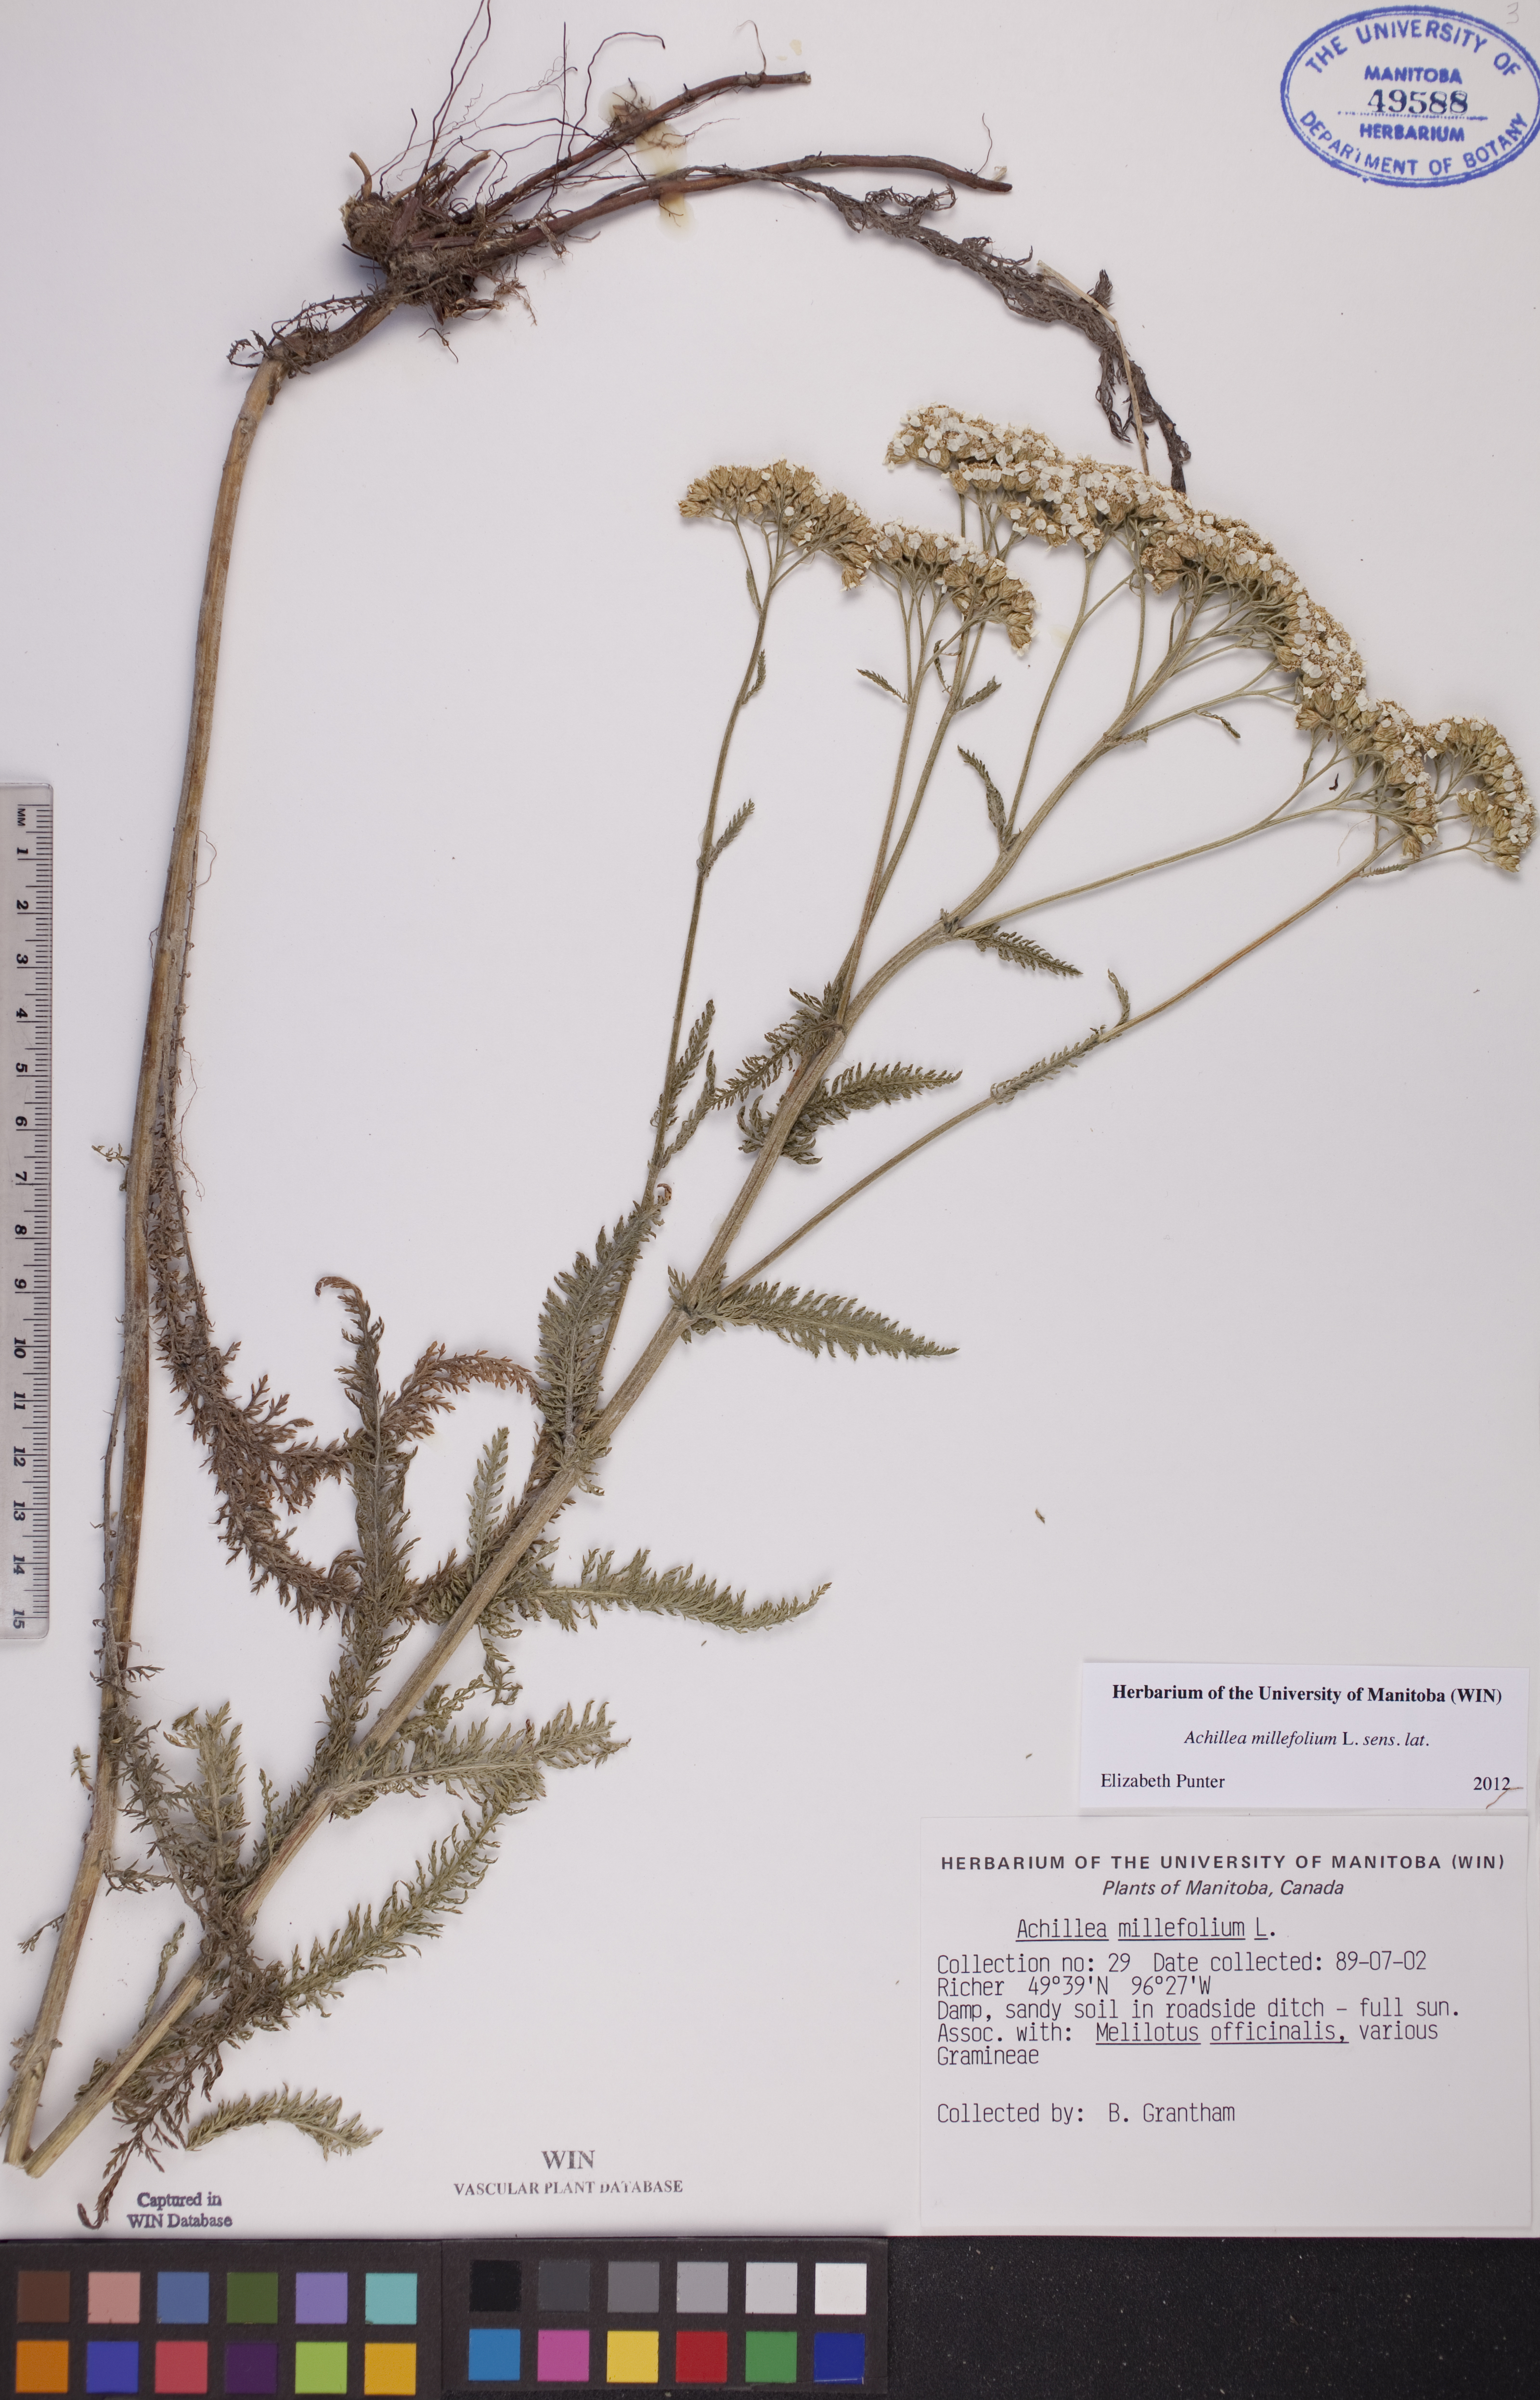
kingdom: Plantae
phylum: Tracheophyta
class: Magnoliopsida
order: Asterales
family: Asteraceae
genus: Achillea
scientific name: Achillea millefolium
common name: Yarrow
